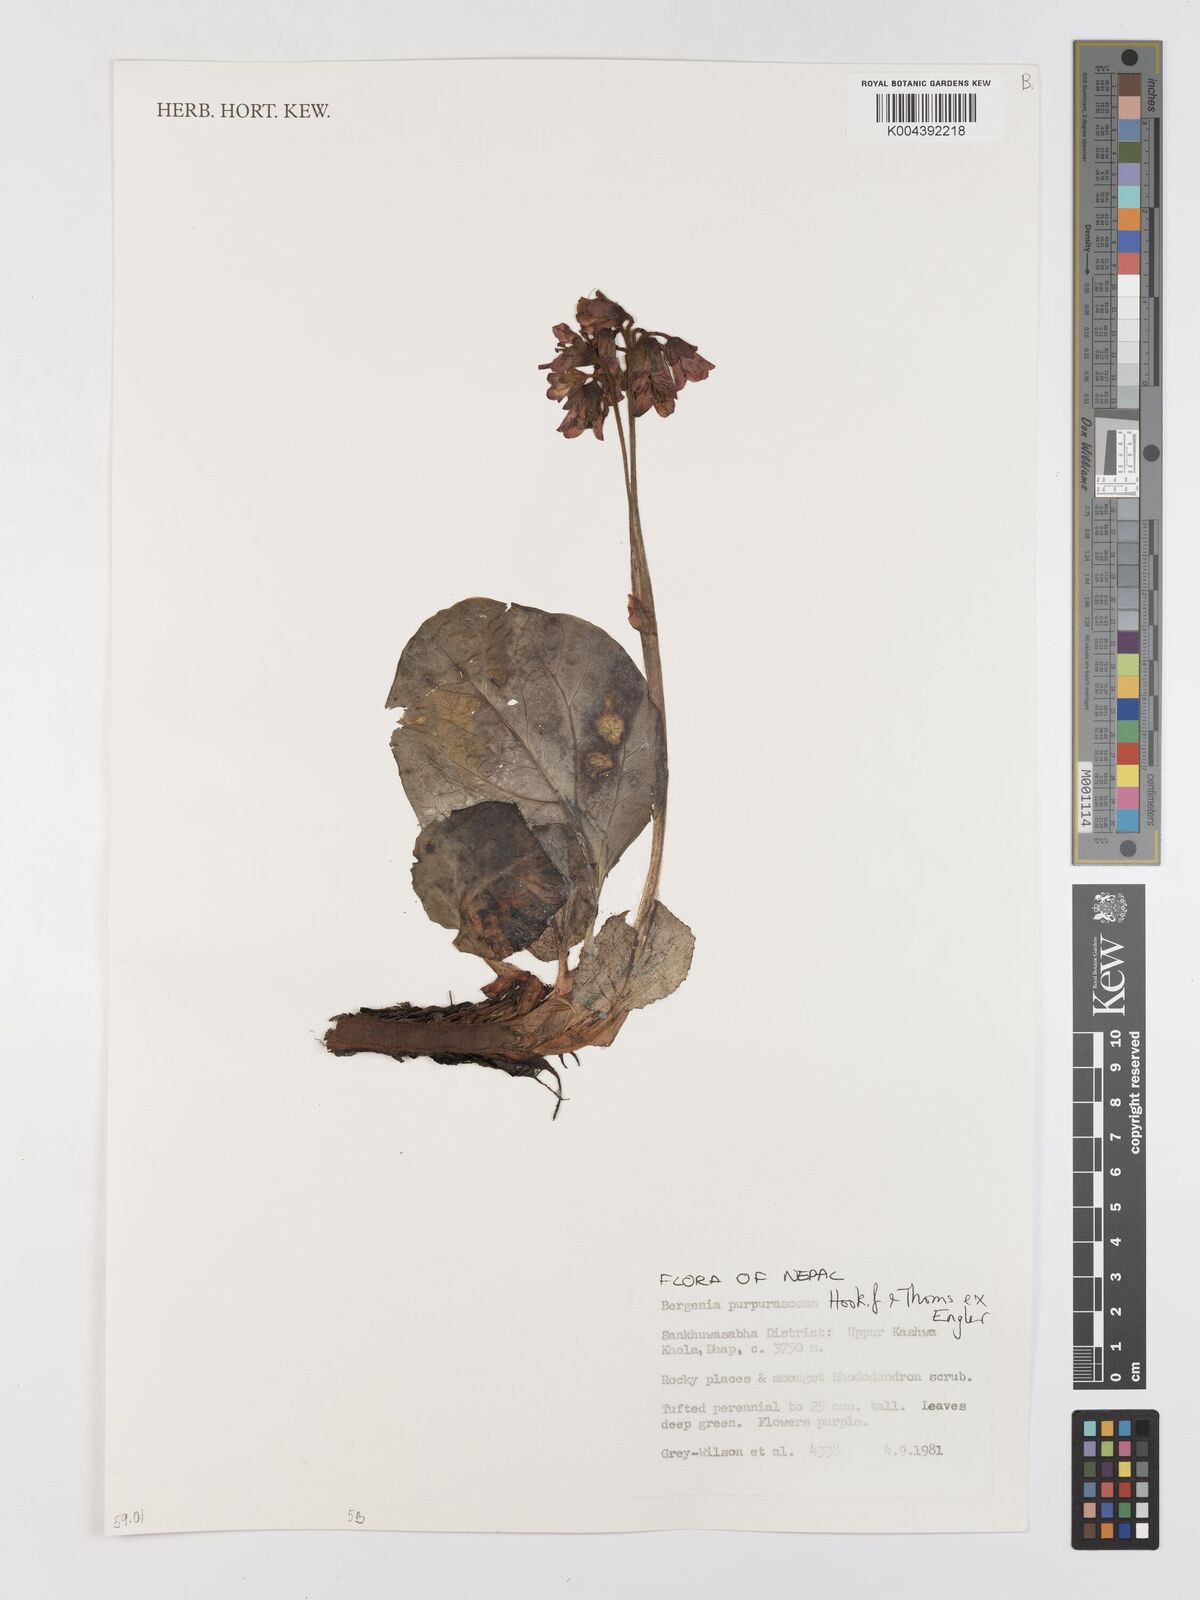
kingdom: Plantae
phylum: Tracheophyta
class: Magnoliopsida
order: Saxifragales
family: Saxifragaceae
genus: Bergenia
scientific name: Bergenia purpurascens
